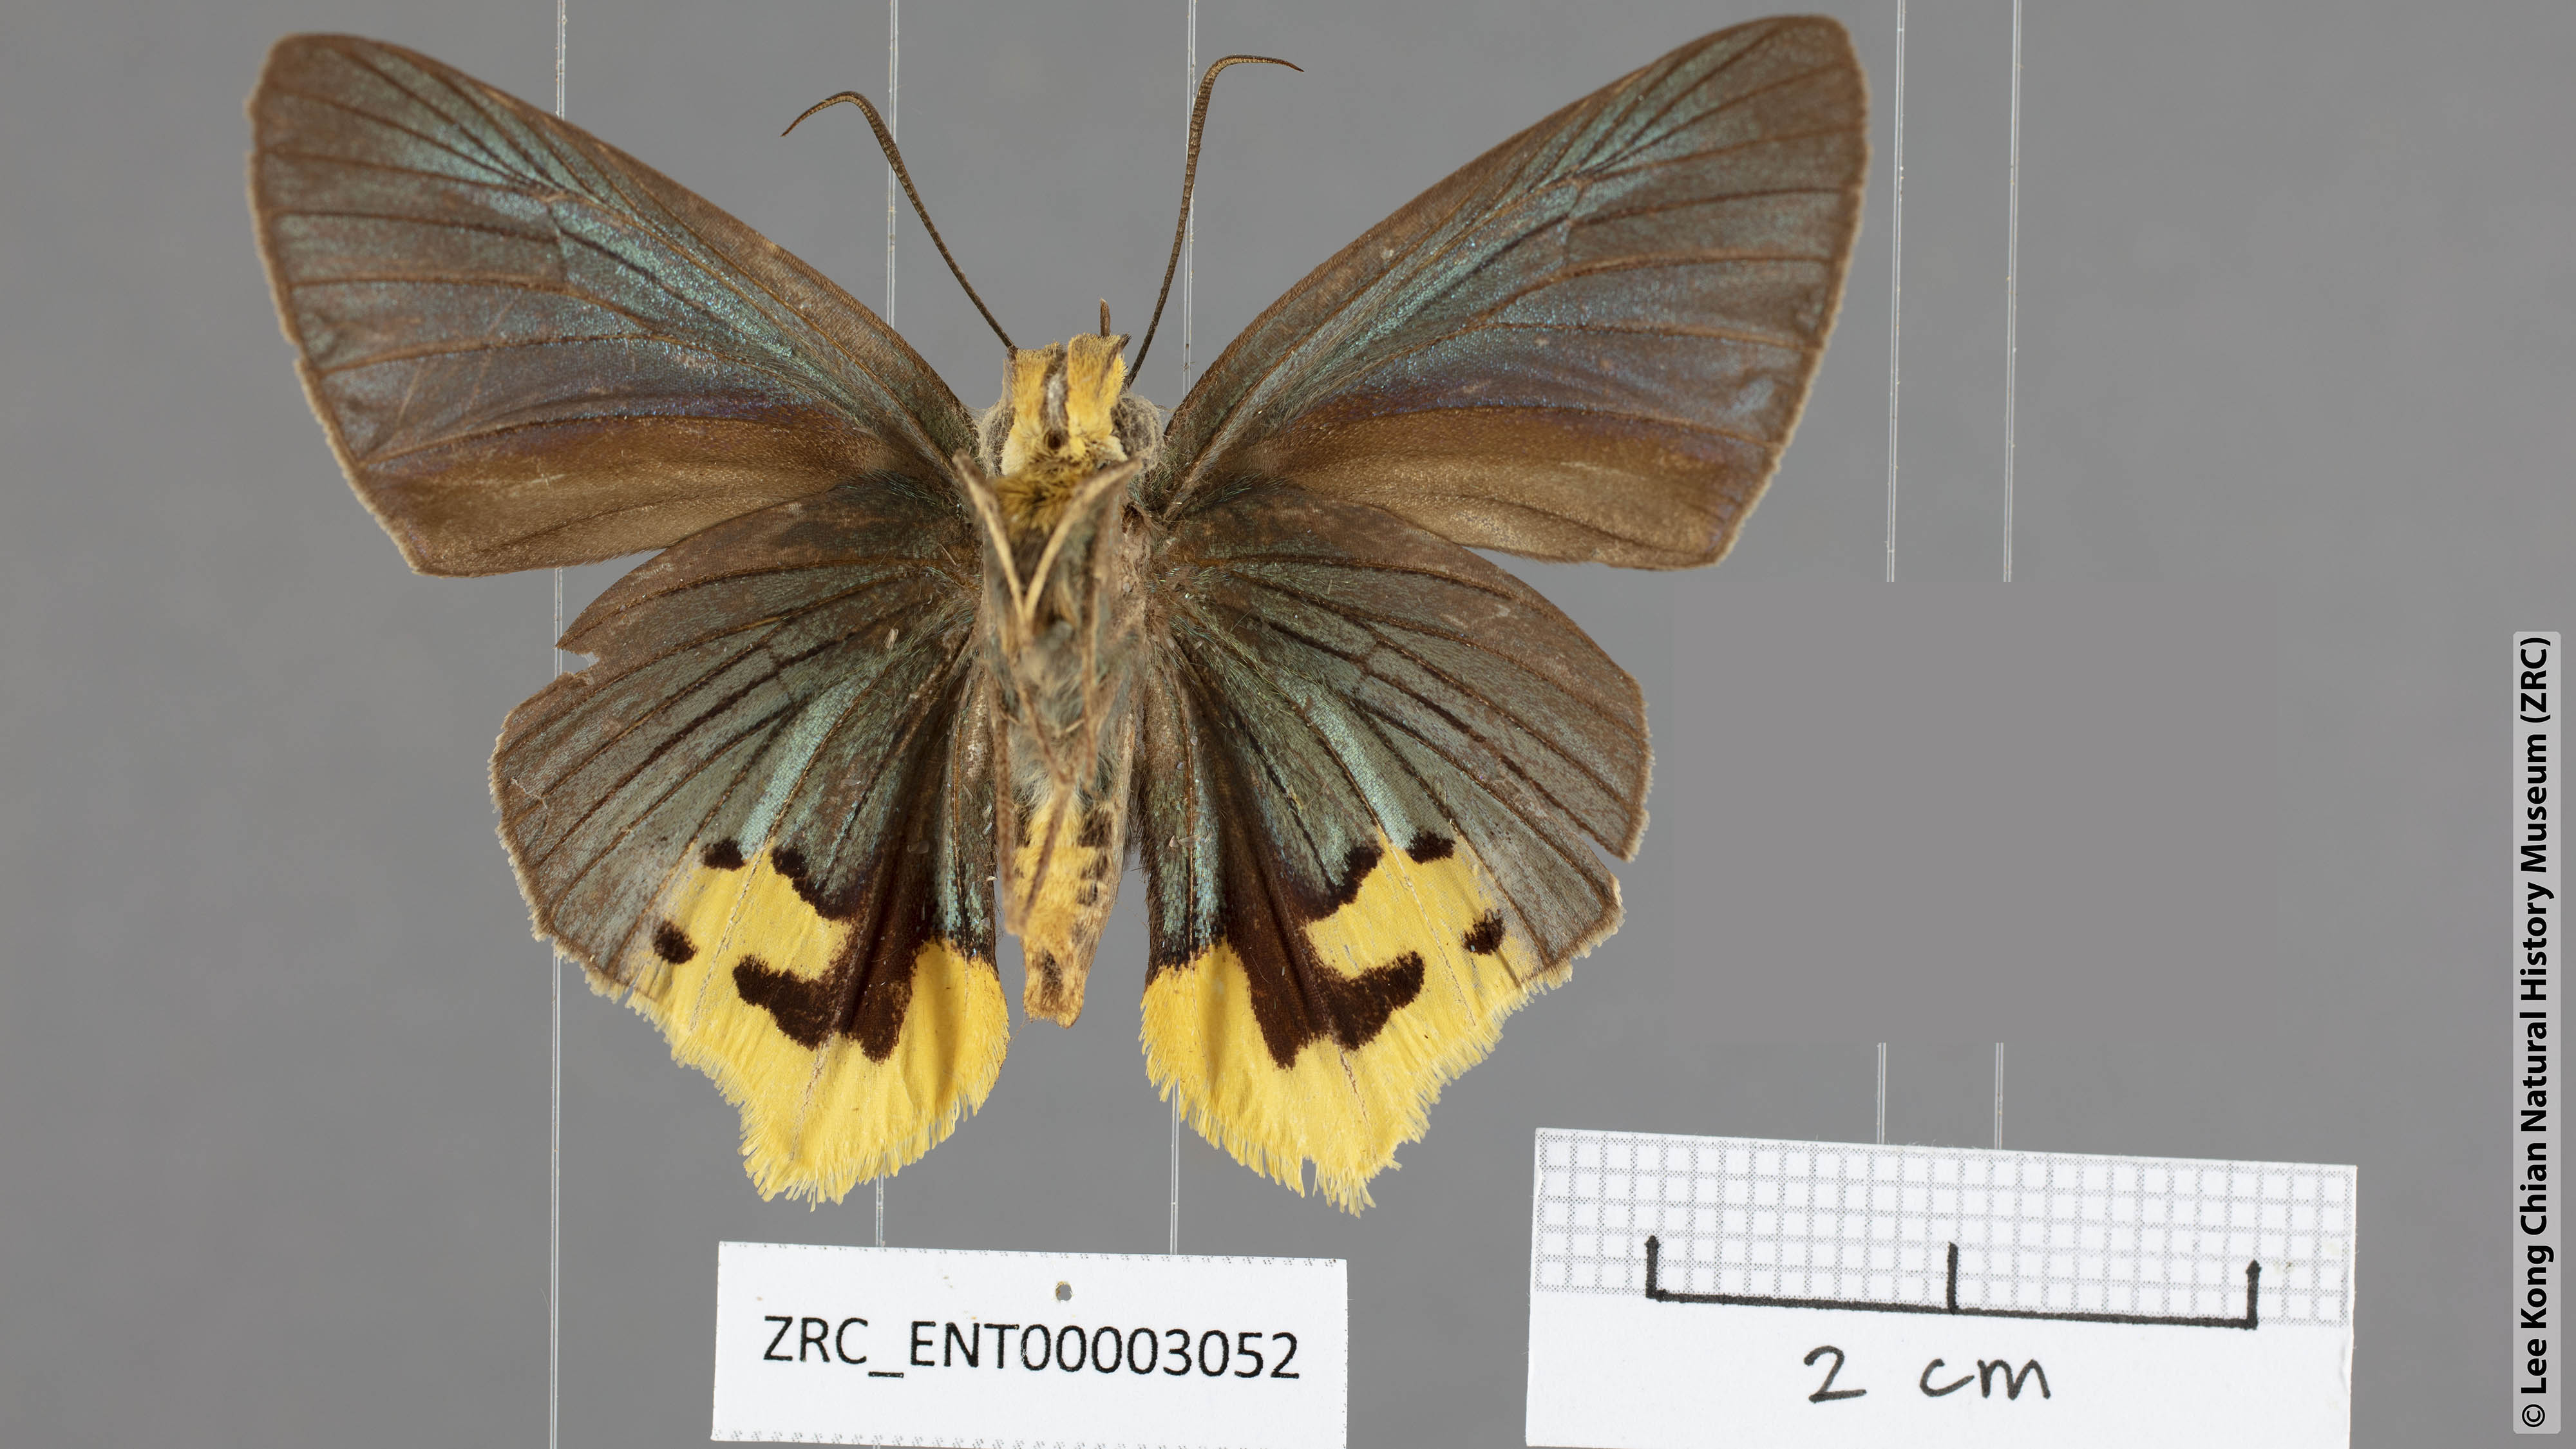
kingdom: Animalia
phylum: Arthropoda
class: Insecta
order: Lepidoptera
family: Hesperiidae
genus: Choaspes
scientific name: Choaspes plateni
